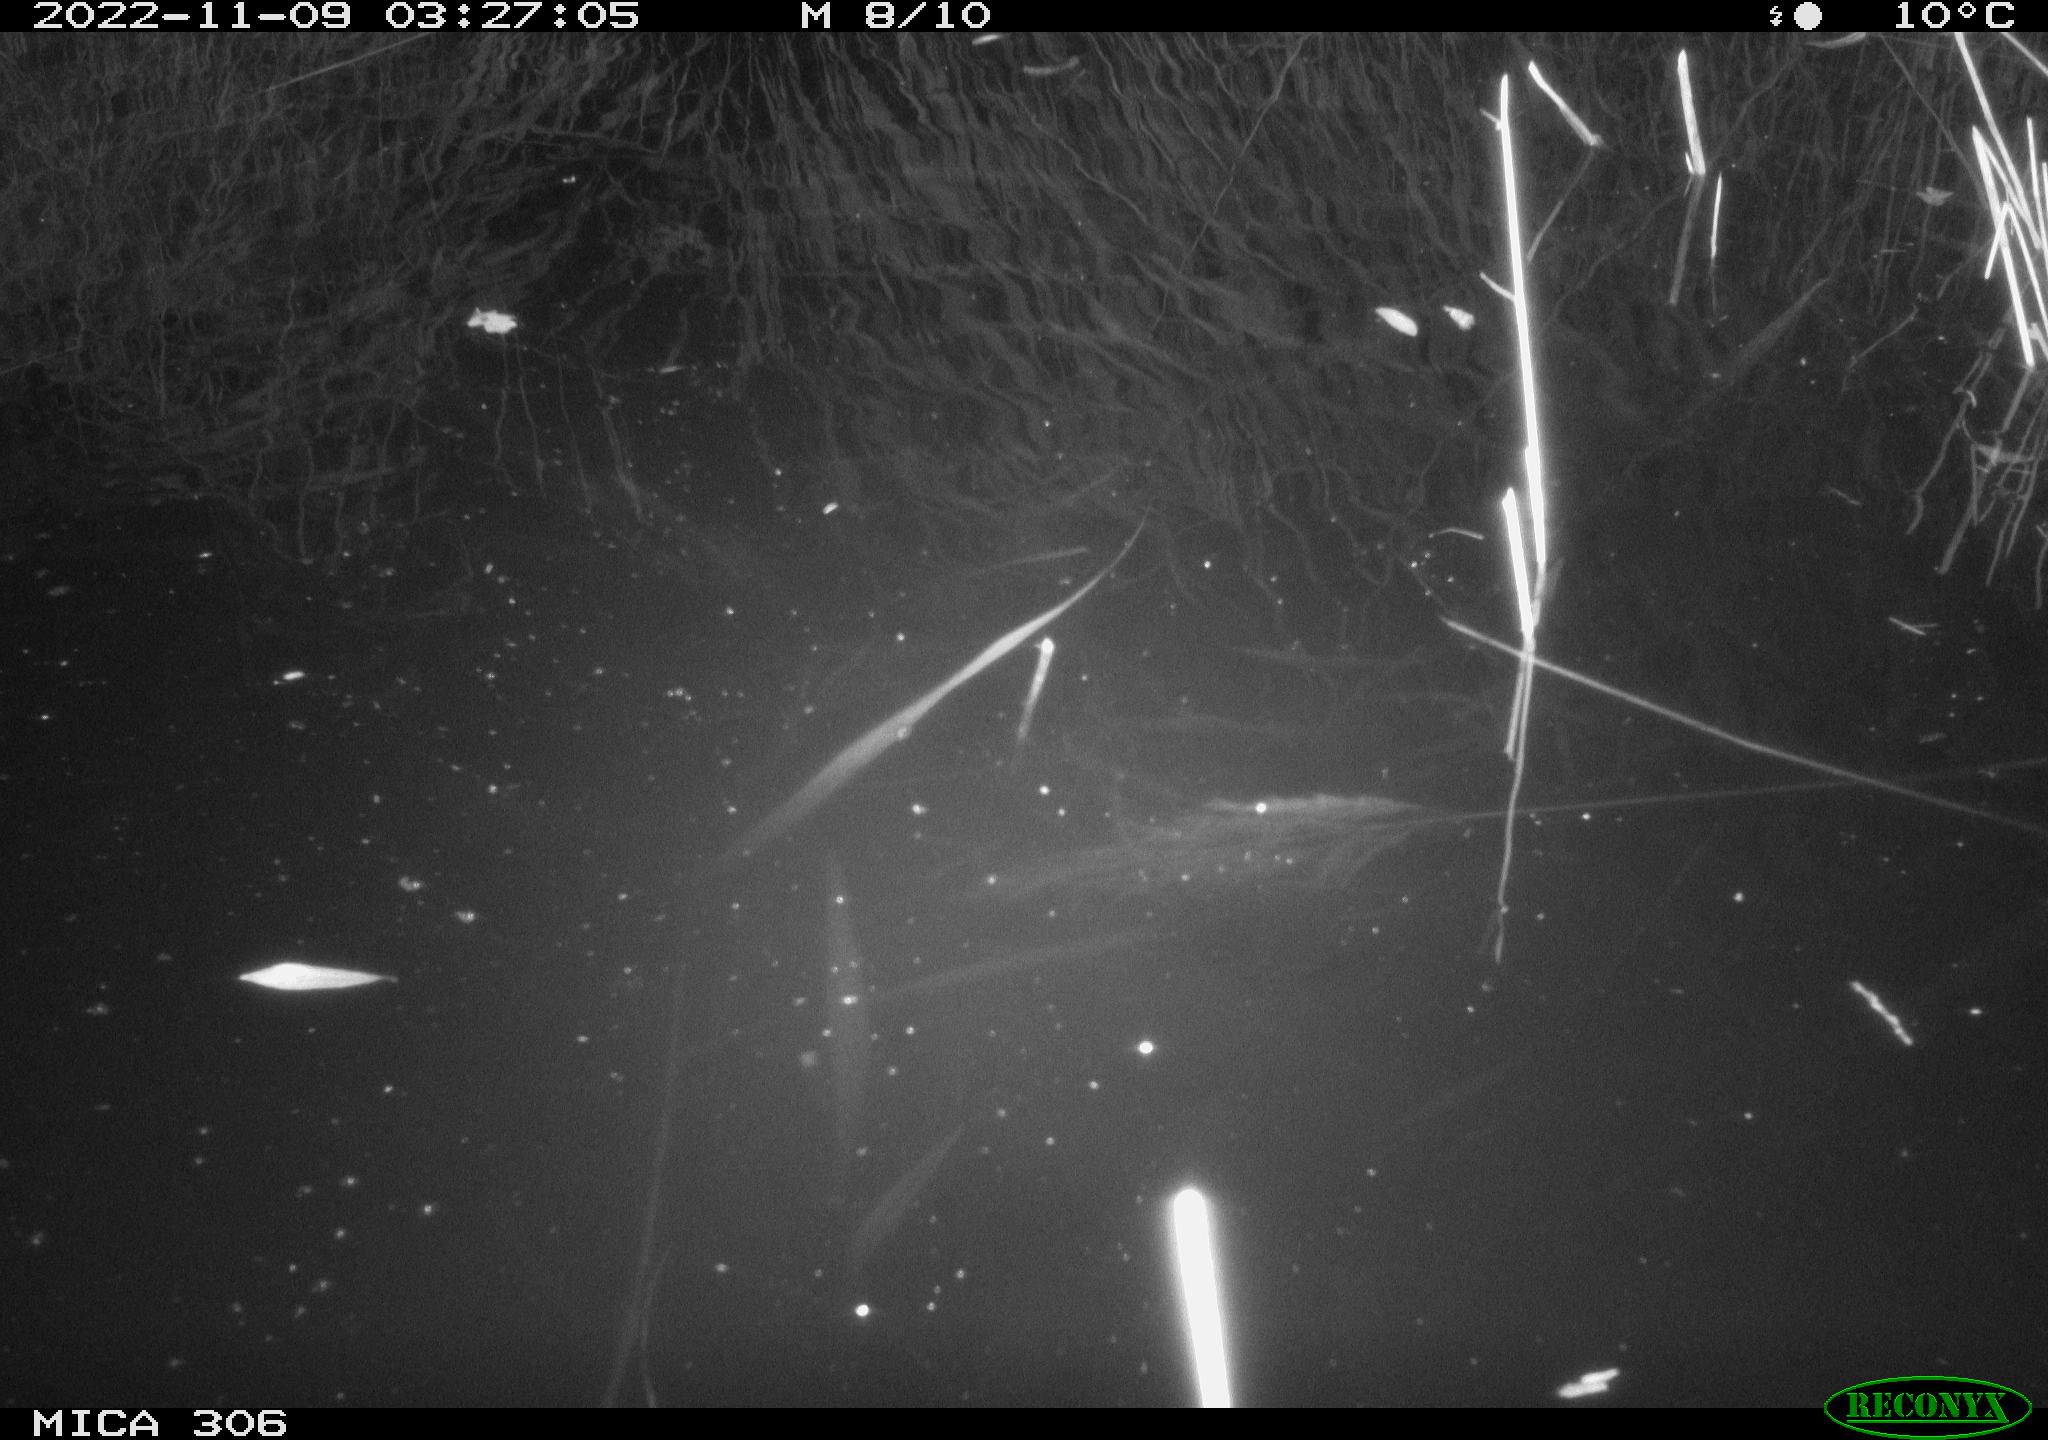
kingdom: Animalia
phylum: Chordata
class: Mammalia
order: Rodentia
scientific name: Rodentia
